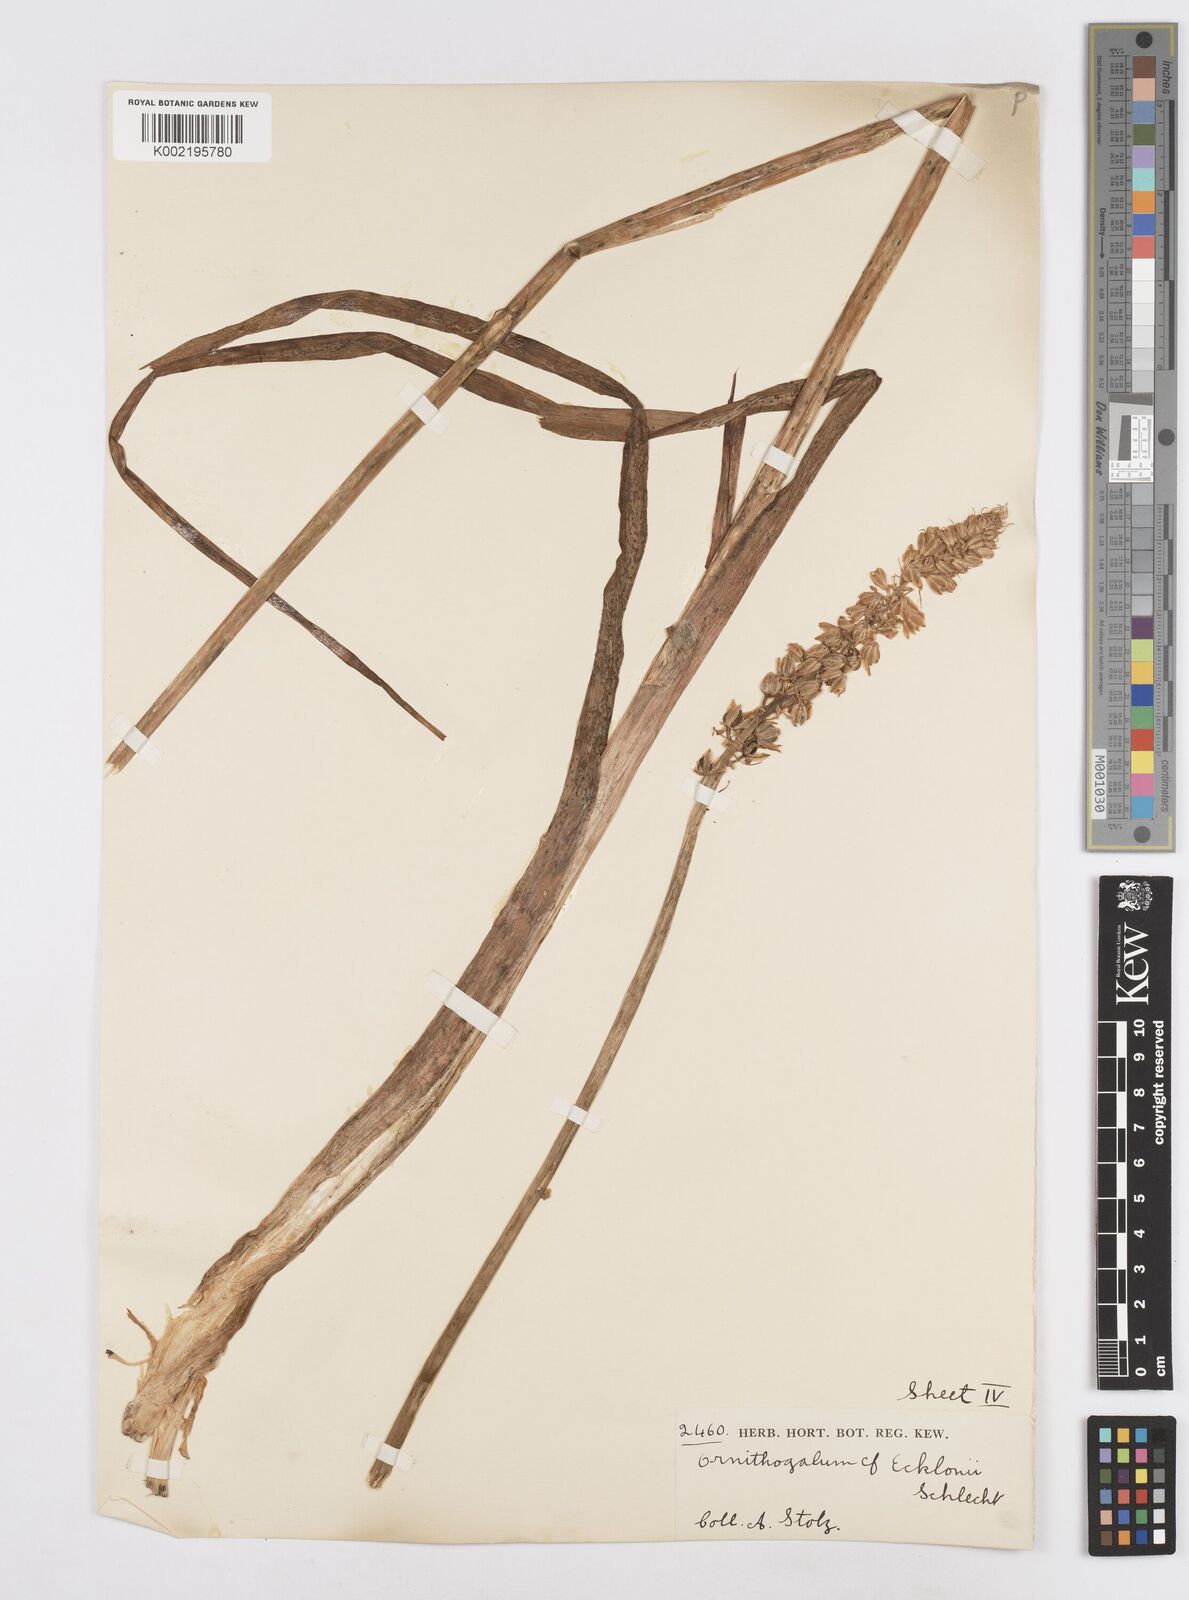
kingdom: Plantae
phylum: Tracheophyta
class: Liliopsida
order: Asparagales
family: Asparagaceae
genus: Albuca
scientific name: Albuca virens
